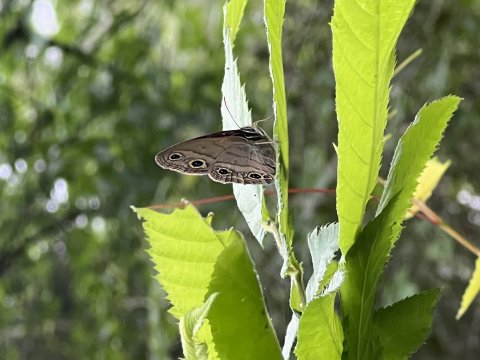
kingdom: Animalia
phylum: Arthropoda
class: Insecta
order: Lepidoptera
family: Nymphalidae
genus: Euptychia
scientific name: Euptychia cymela
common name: Little Wood Satyr
